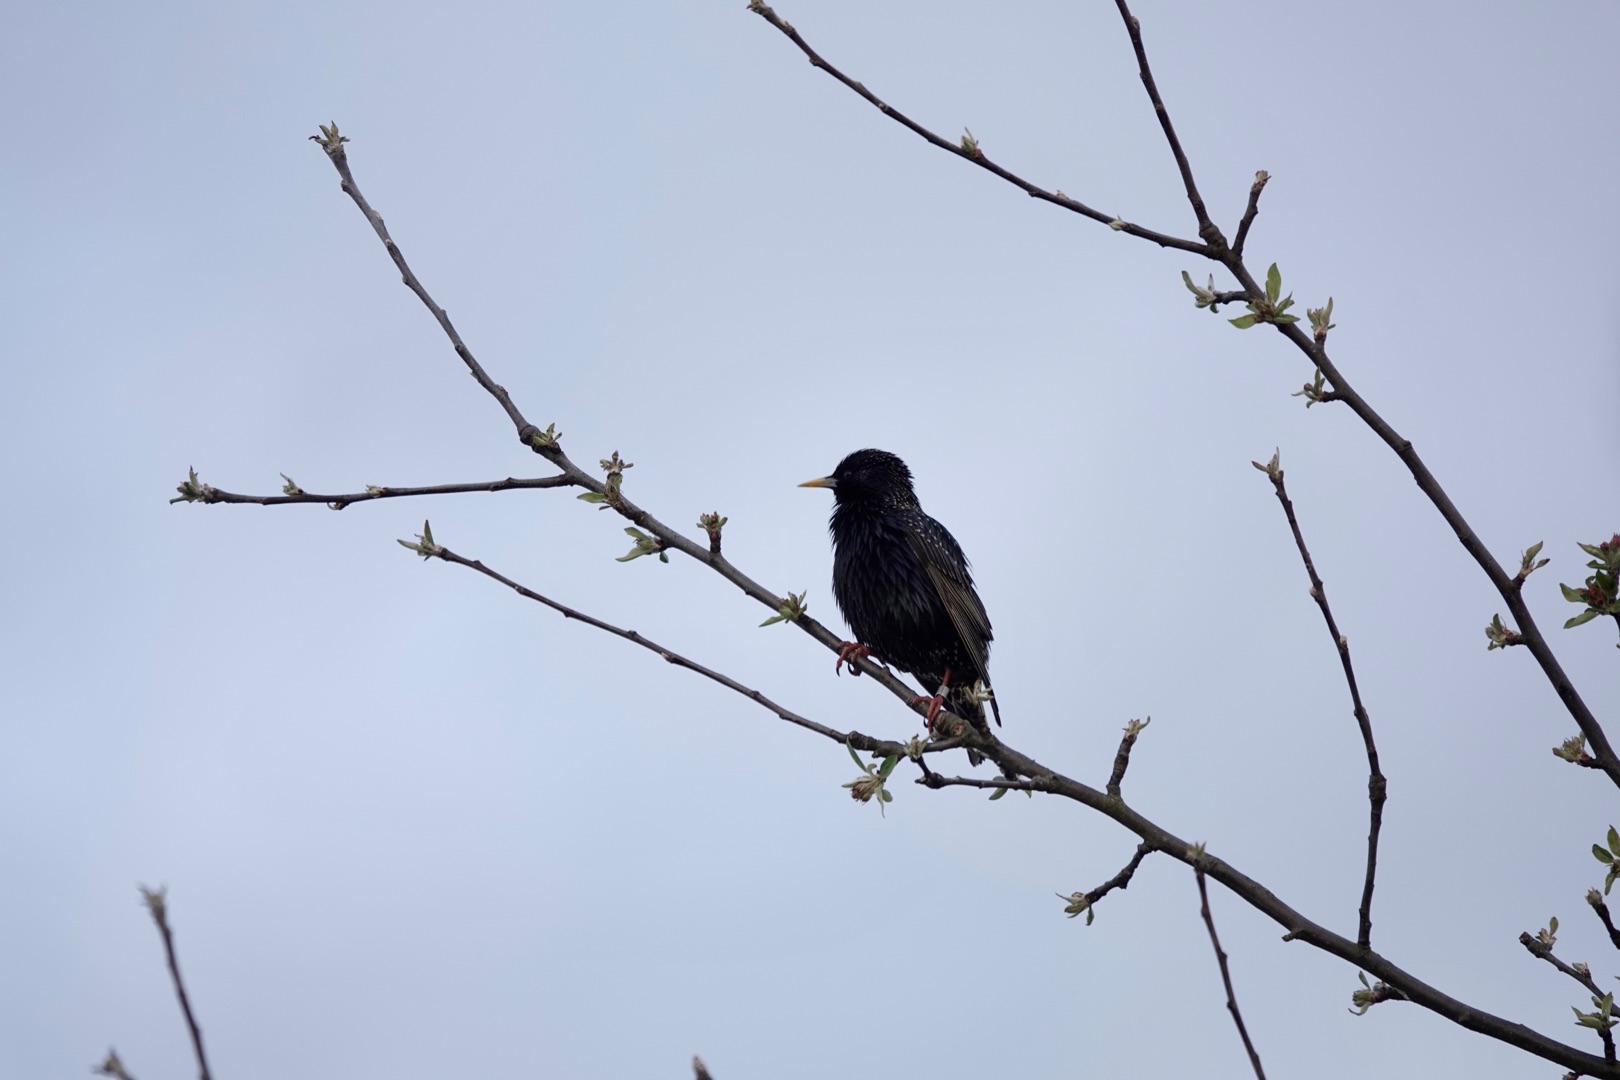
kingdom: Animalia
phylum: Chordata
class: Aves
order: Passeriformes
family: Sturnidae
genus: Sturnus
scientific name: Sturnus vulgaris
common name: Stær
